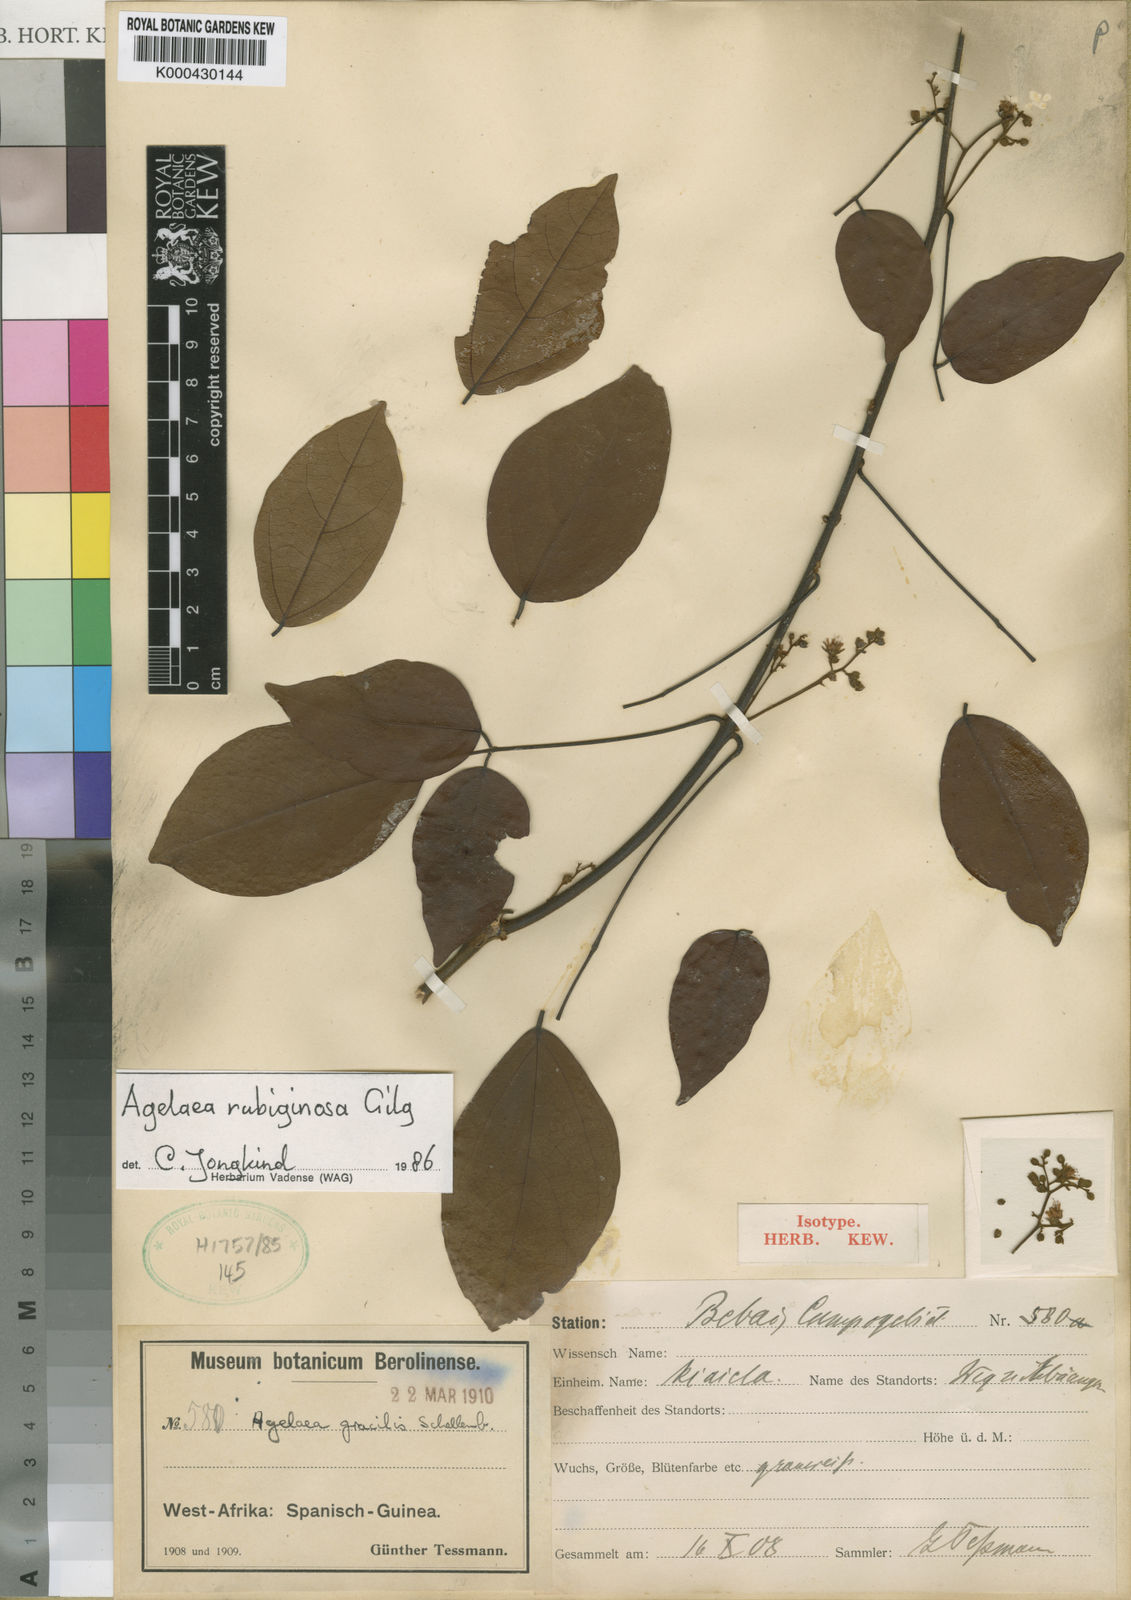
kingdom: Plantae
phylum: Tracheophyta
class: Magnoliopsida
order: Oxalidales
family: Connaraceae
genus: Agelaea
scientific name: Agelaea rubiginosa
